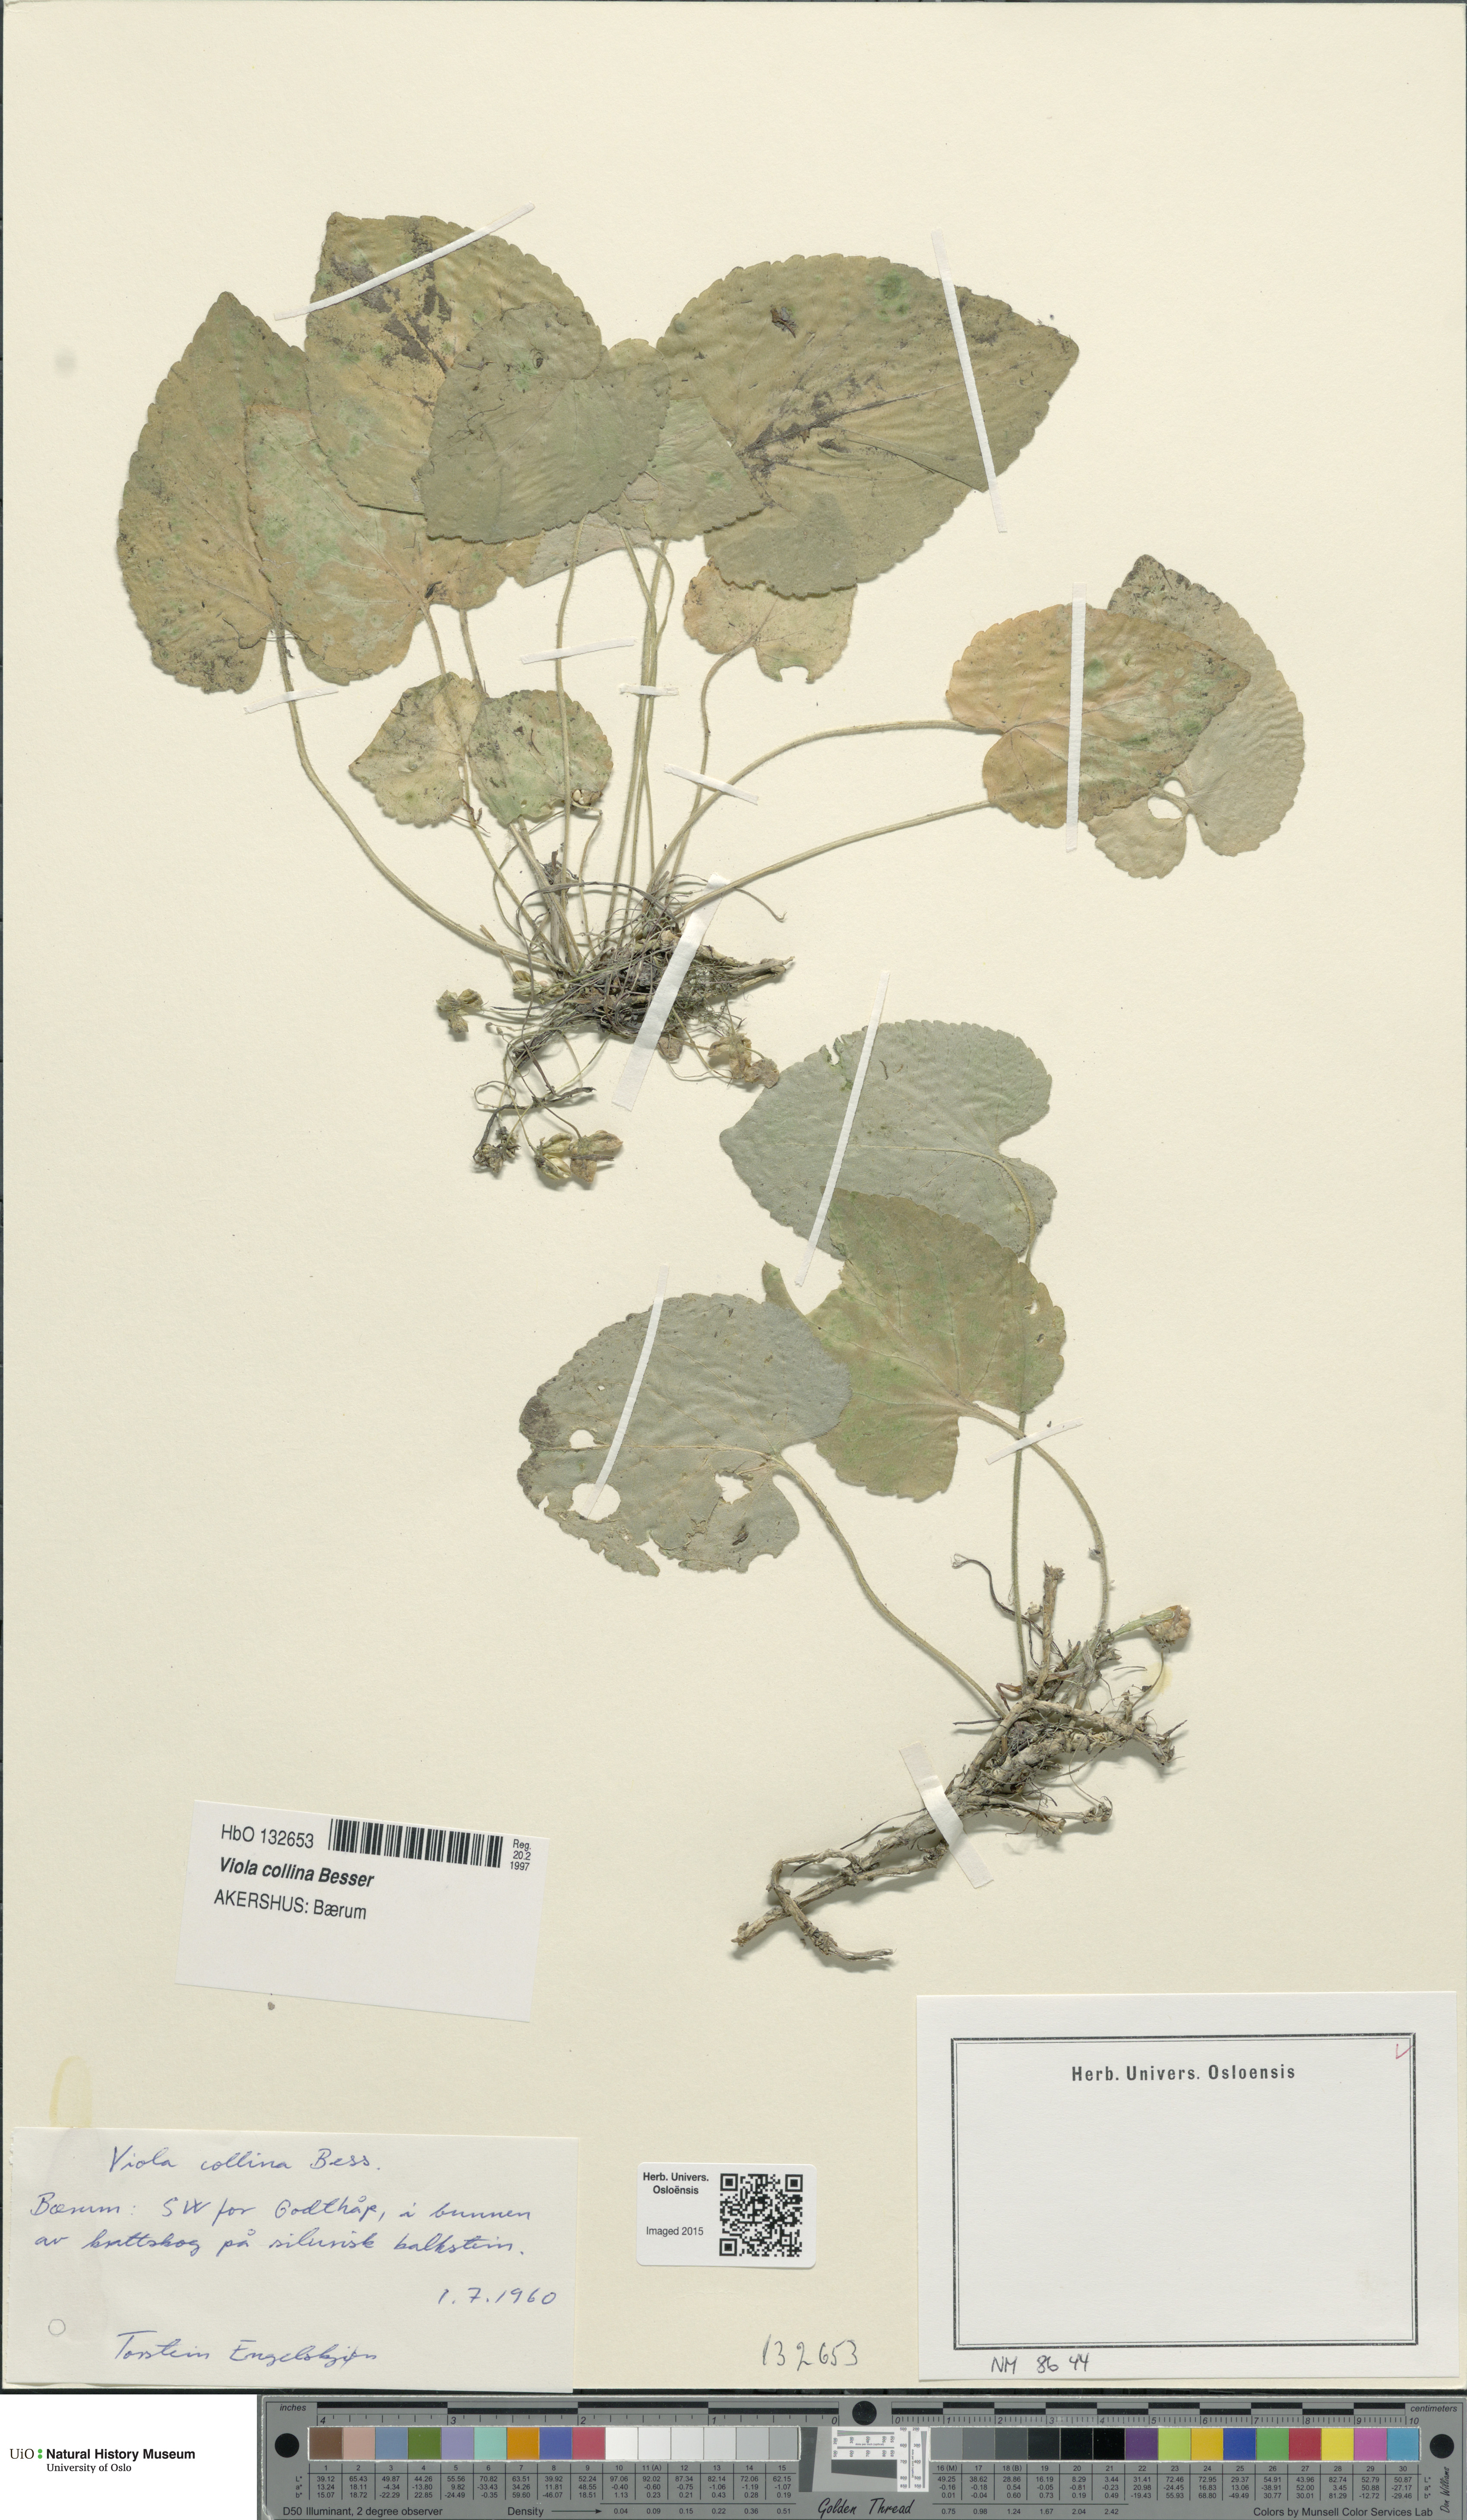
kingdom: Plantae
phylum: Tracheophyta
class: Magnoliopsida
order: Malpighiales
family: Violaceae
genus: Viola
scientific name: Viola collina
